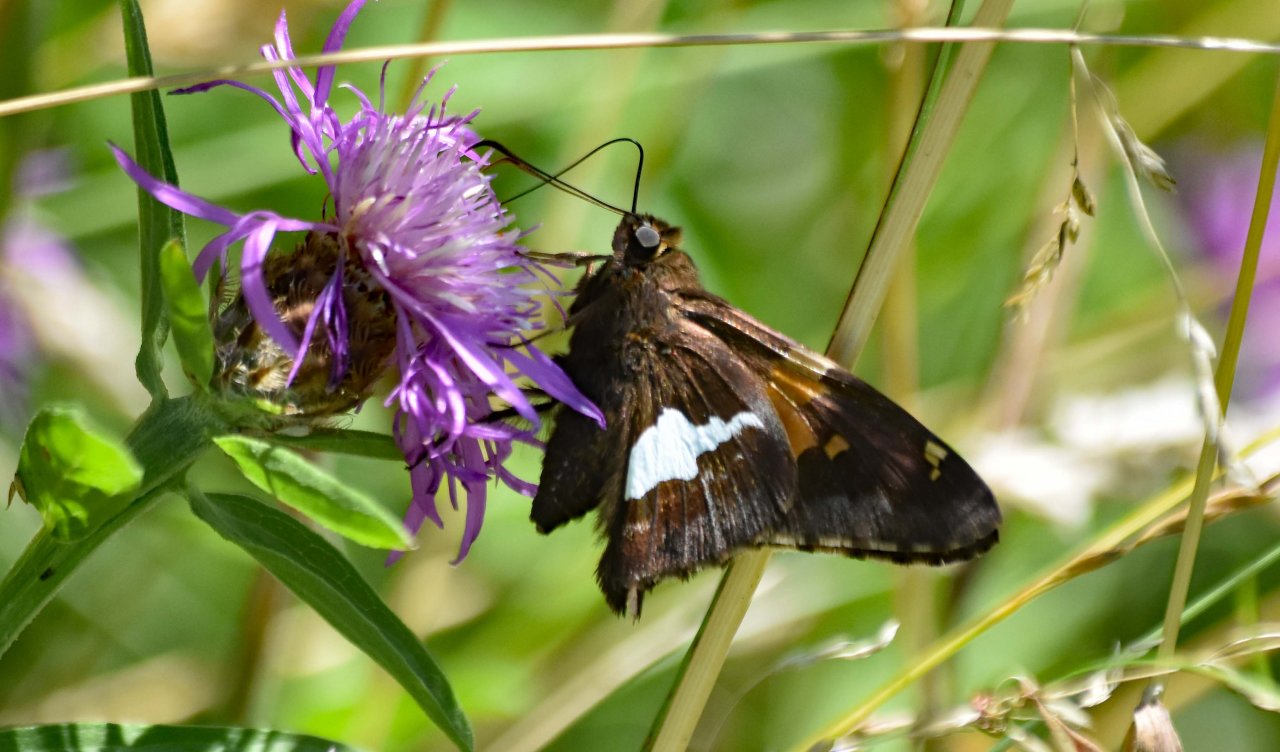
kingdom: Animalia
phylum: Arthropoda
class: Insecta
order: Lepidoptera
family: Hesperiidae
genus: Epargyreus
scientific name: Epargyreus clarus
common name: Silver-spotted Skipper
